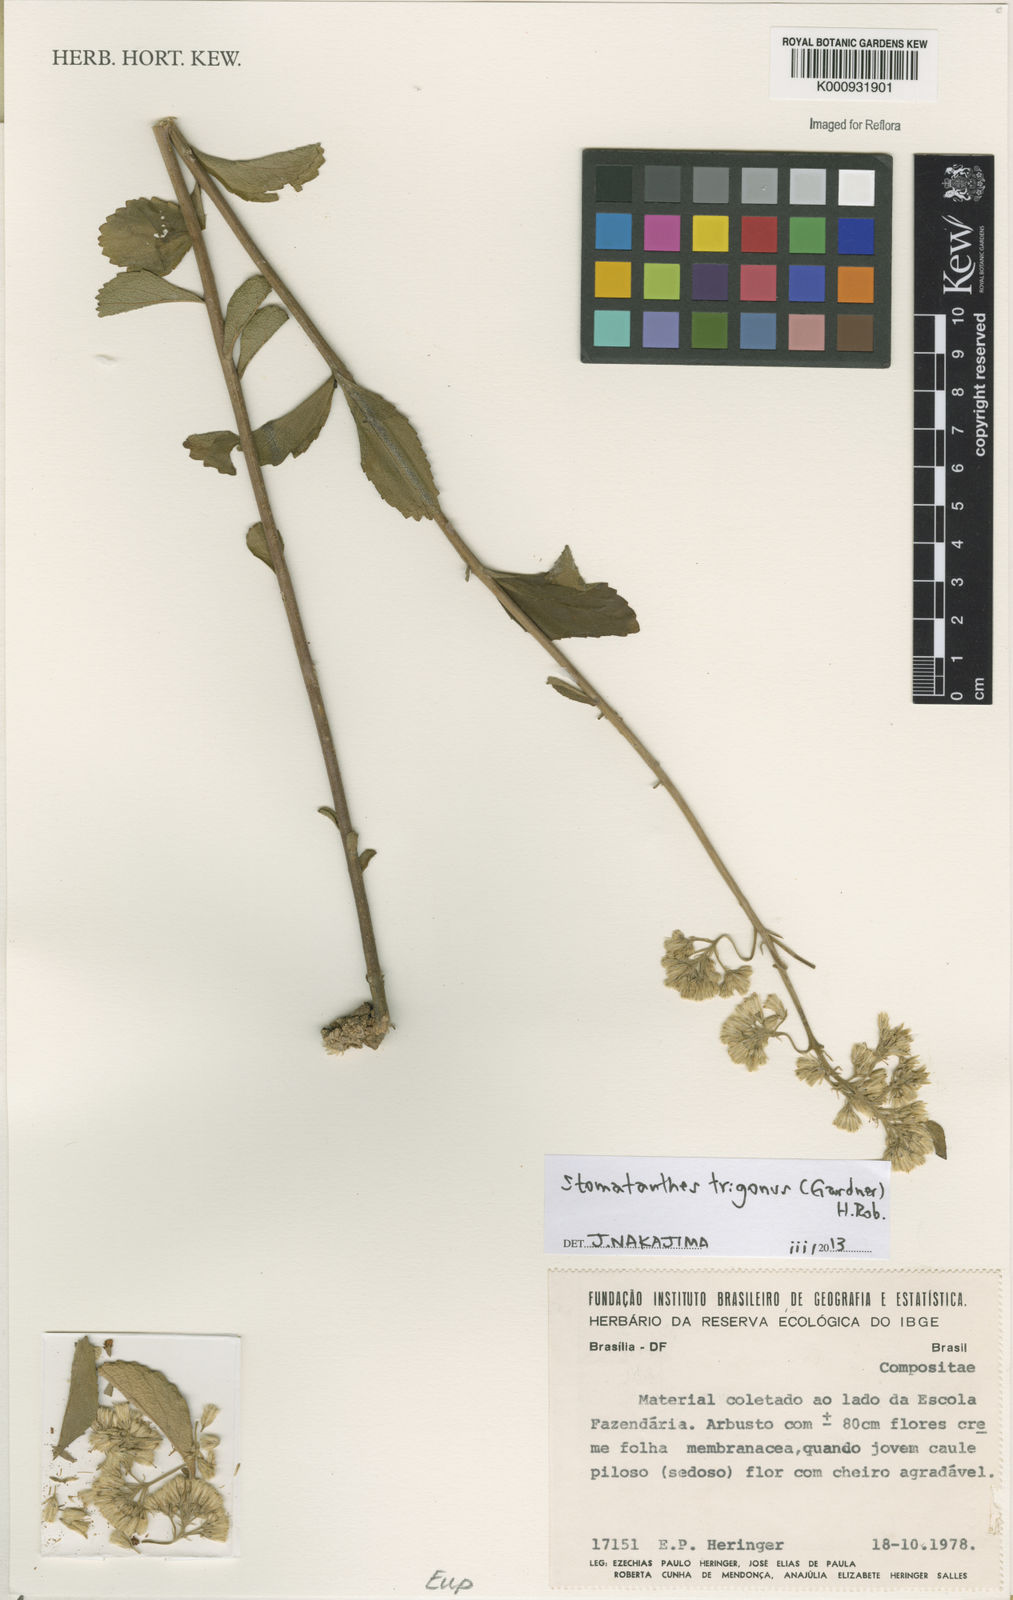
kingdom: Plantae
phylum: Tracheophyta
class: Magnoliopsida
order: Asterales
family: Asteraceae
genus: Stomatanthes
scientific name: Stomatanthes trigonus
